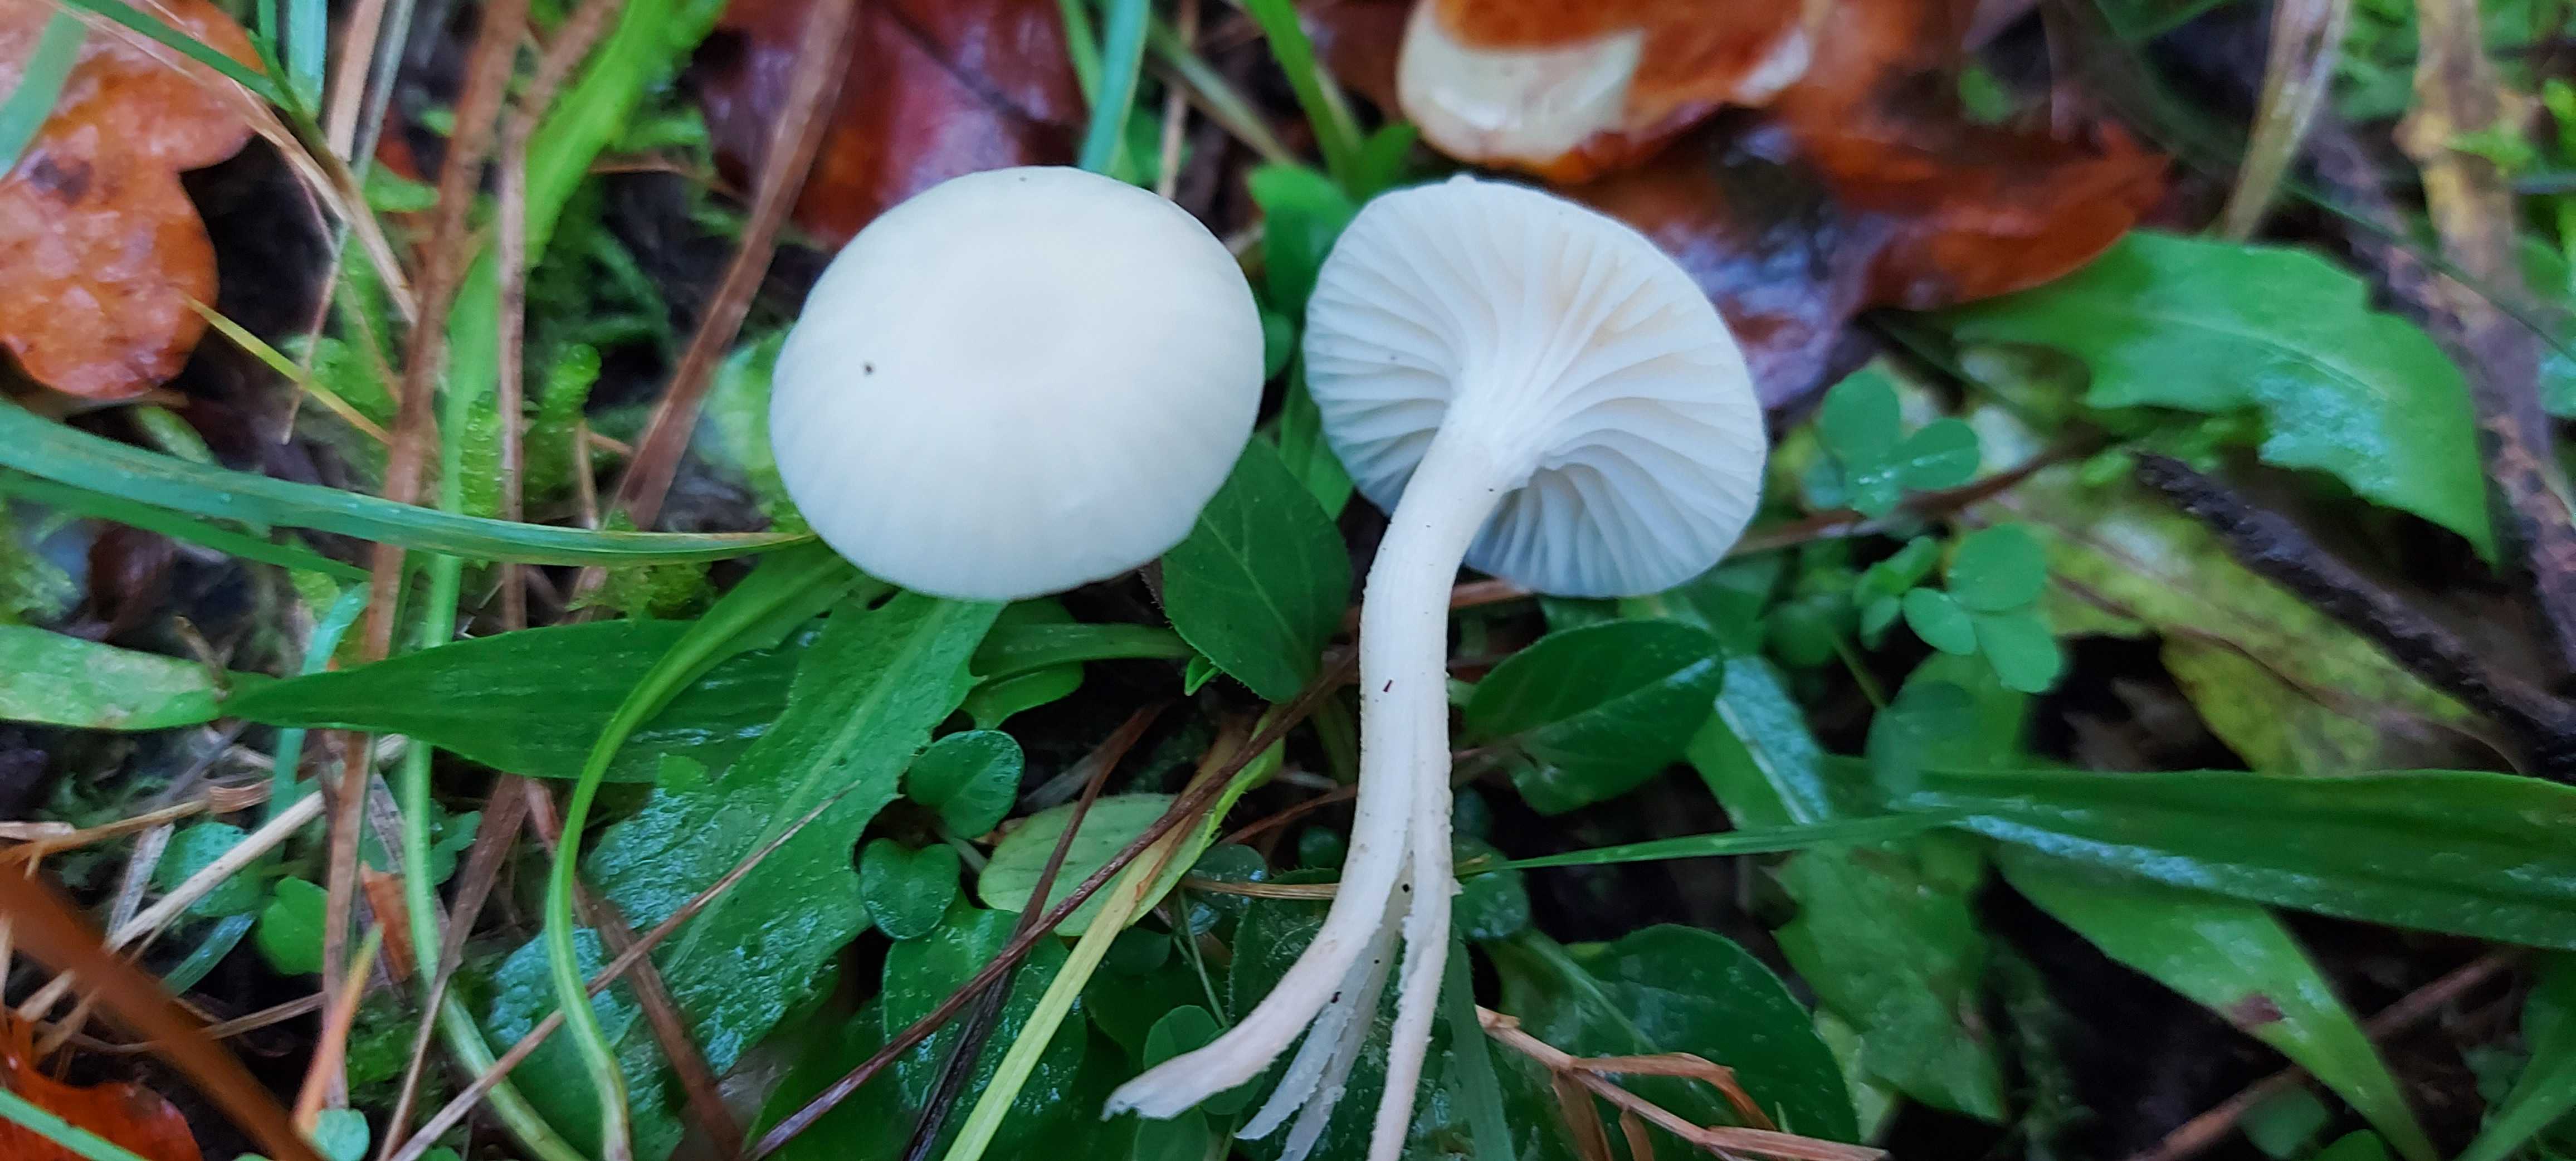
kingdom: Fungi
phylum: Basidiomycota
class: Agaricomycetes
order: Agaricales
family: Hygrophoraceae
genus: Cuphophyllus
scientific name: Cuphophyllus virgineus
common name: snehvid vokshat
